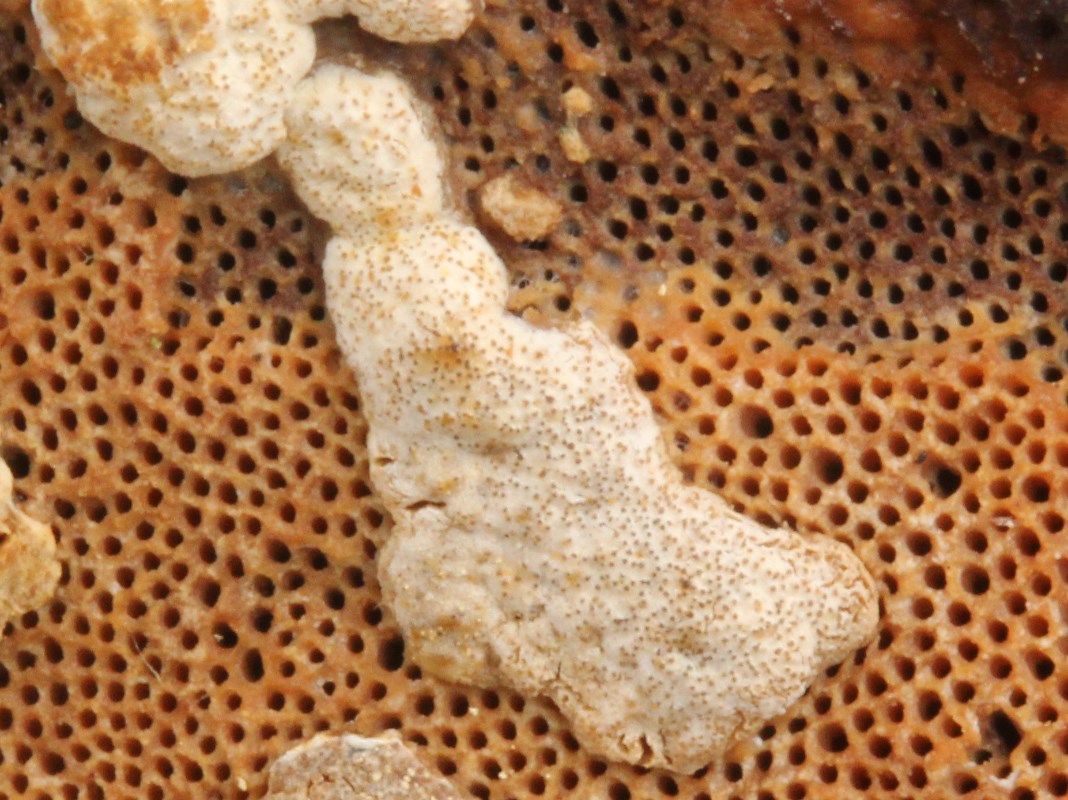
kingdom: Fungi
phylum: Ascomycota
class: Sordariomycetes
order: Hypocreales
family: Hypocreaceae
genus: Trichoderma
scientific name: Trichoderma pulvinatum
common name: snyltende kødkerne
